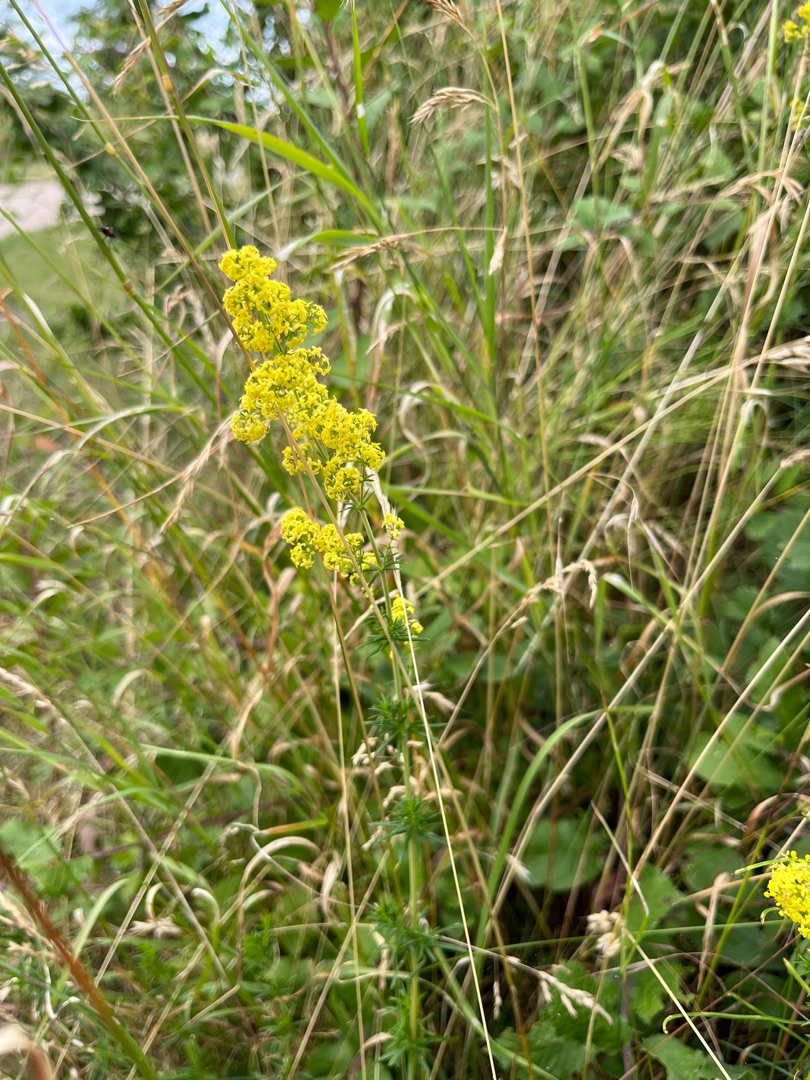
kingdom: Plantae
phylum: Tracheophyta
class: Magnoliopsida
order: Gentianales
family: Rubiaceae
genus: Galium
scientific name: Galium verum
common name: Gul snerre
